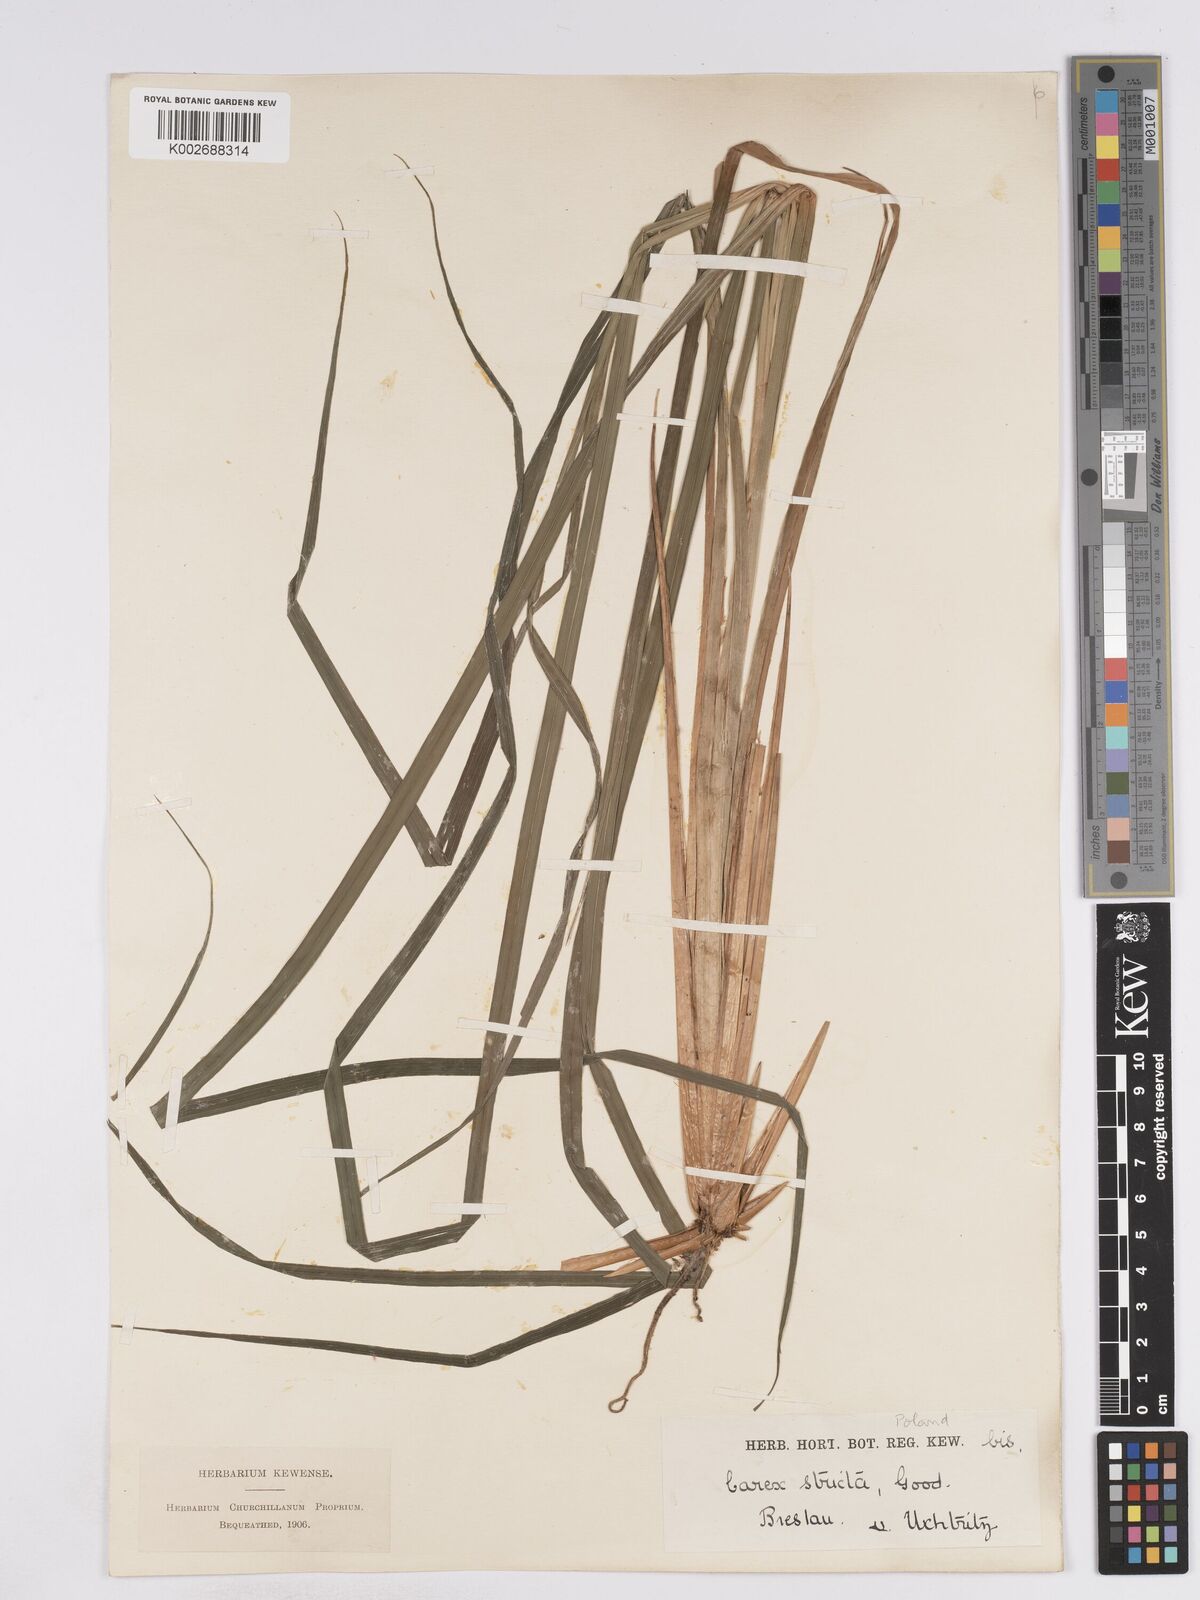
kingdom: Plantae
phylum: Tracheophyta
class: Liliopsida
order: Poales
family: Cyperaceae
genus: Carex
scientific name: Carex elata
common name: Tufted sedge
